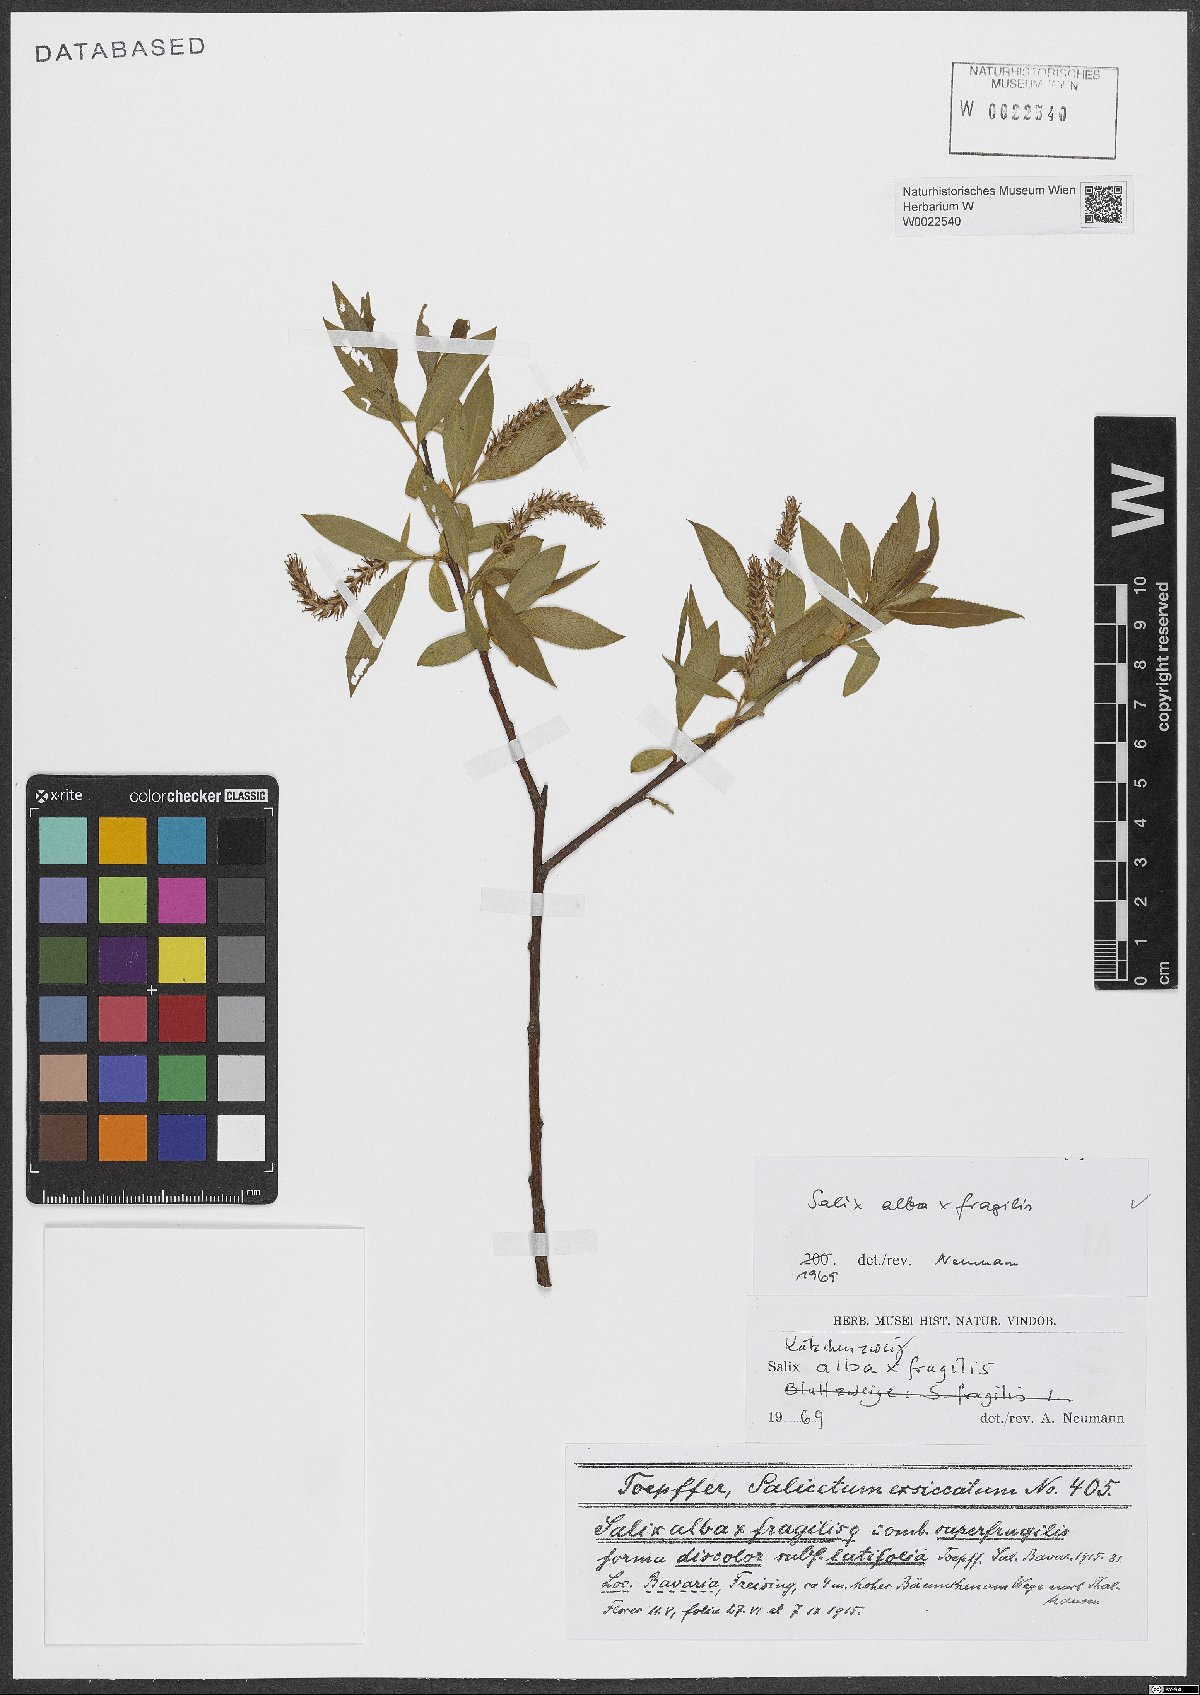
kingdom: Plantae
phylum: Tracheophyta
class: Magnoliopsida
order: Malpighiales
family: Salicaceae
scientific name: Salicaceae
